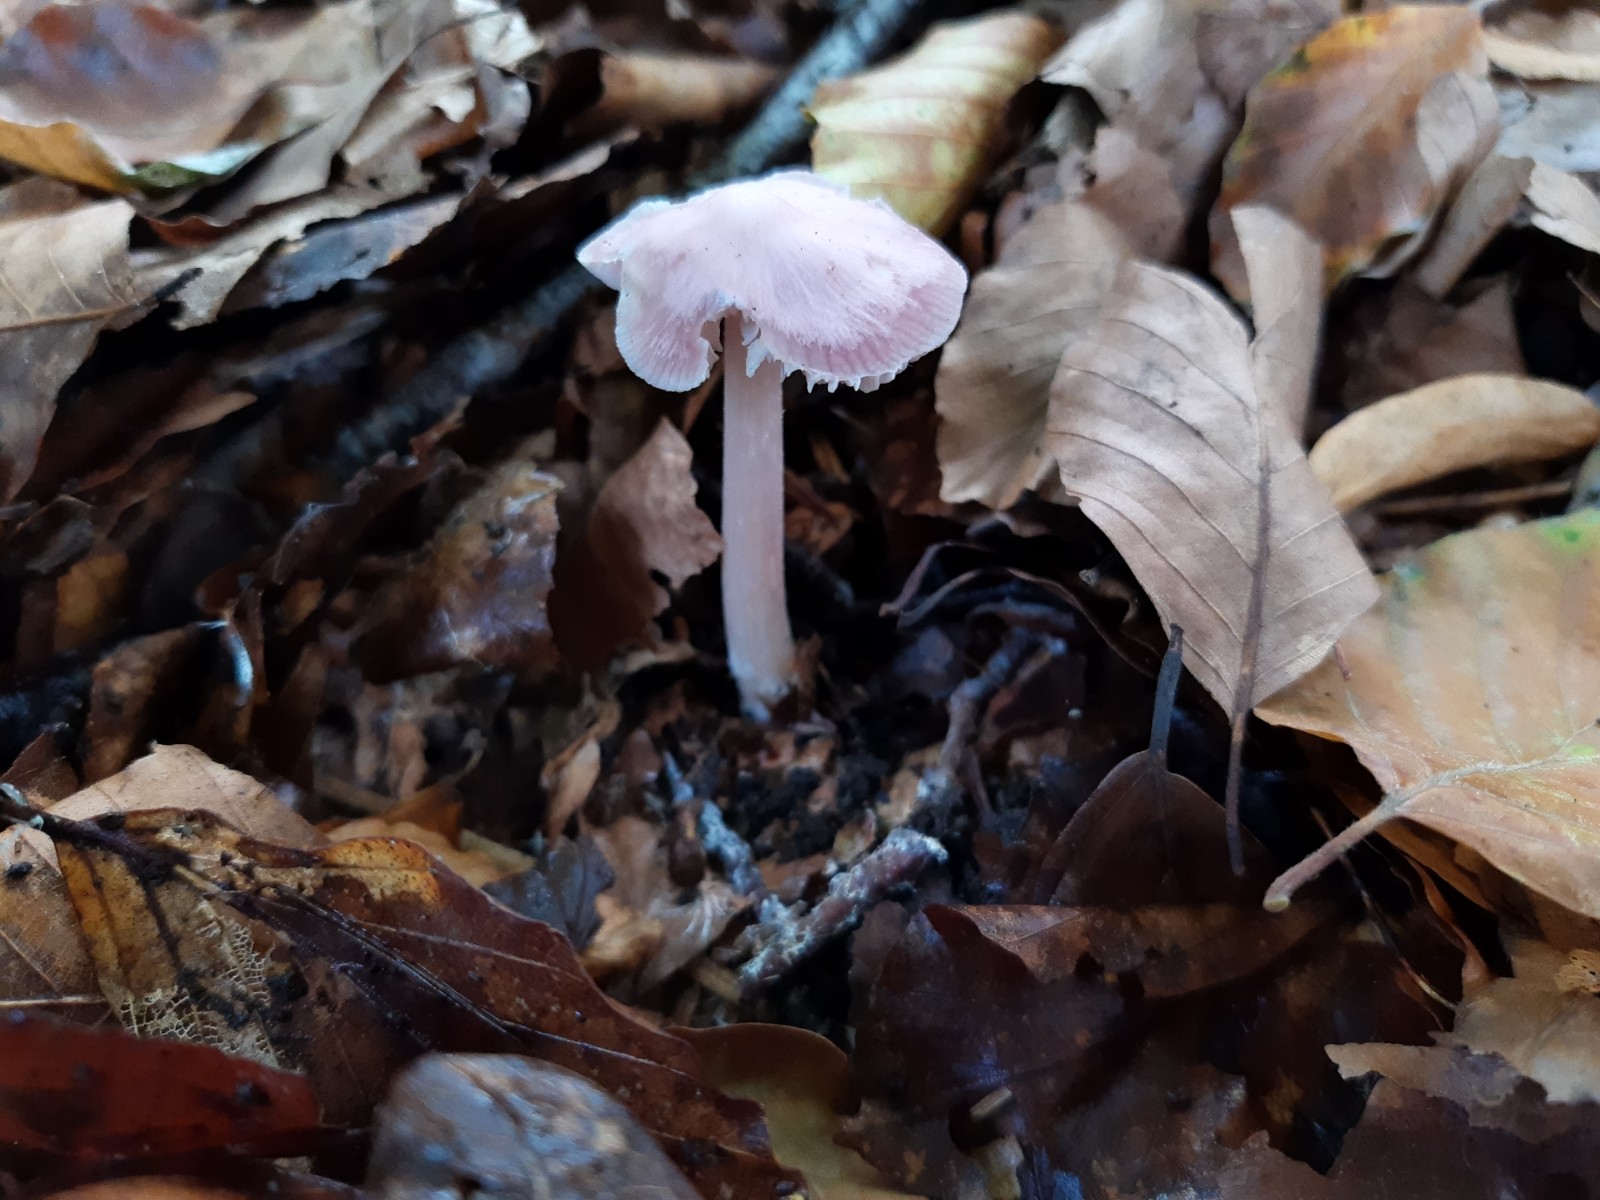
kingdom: Fungi
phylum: Basidiomycota
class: Agaricomycetes
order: Agaricales
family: Mycenaceae
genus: Mycena
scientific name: Mycena rosea
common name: rosa huesvamp
